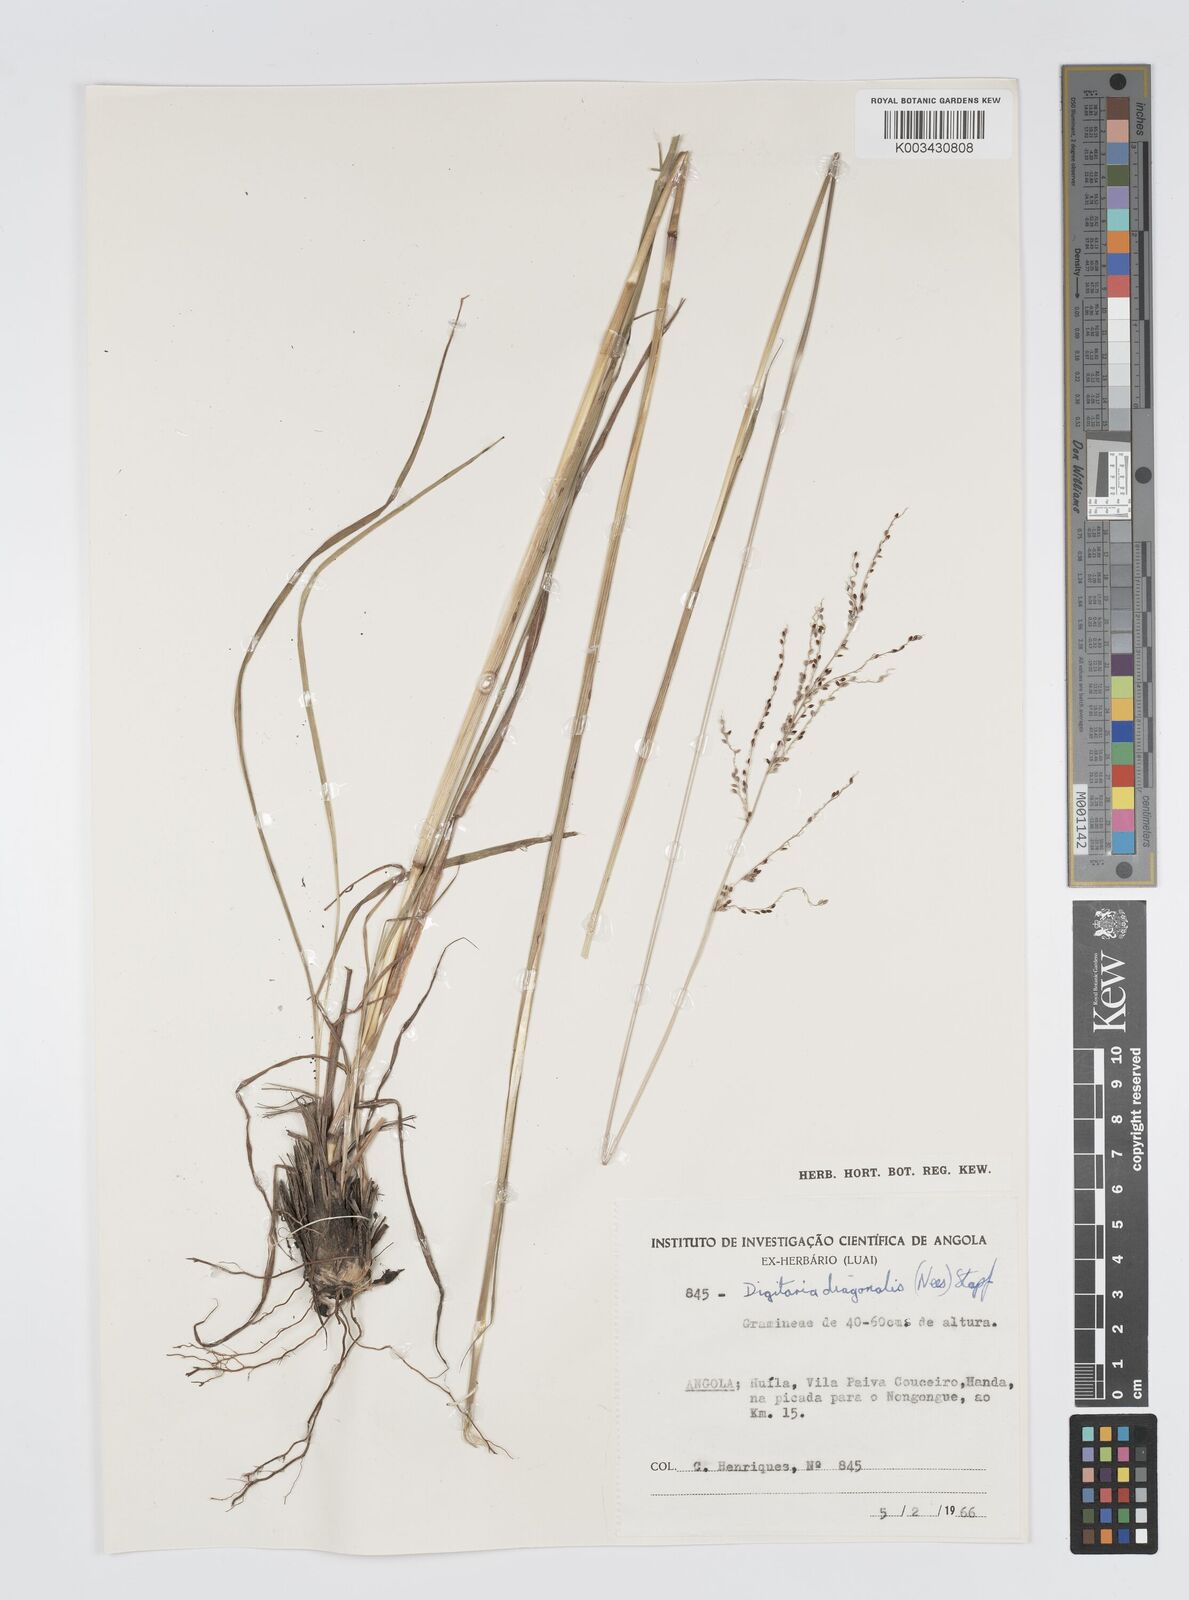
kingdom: Plantae
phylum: Tracheophyta
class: Liliopsida
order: Poales
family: Poaceae
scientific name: Poaceae
